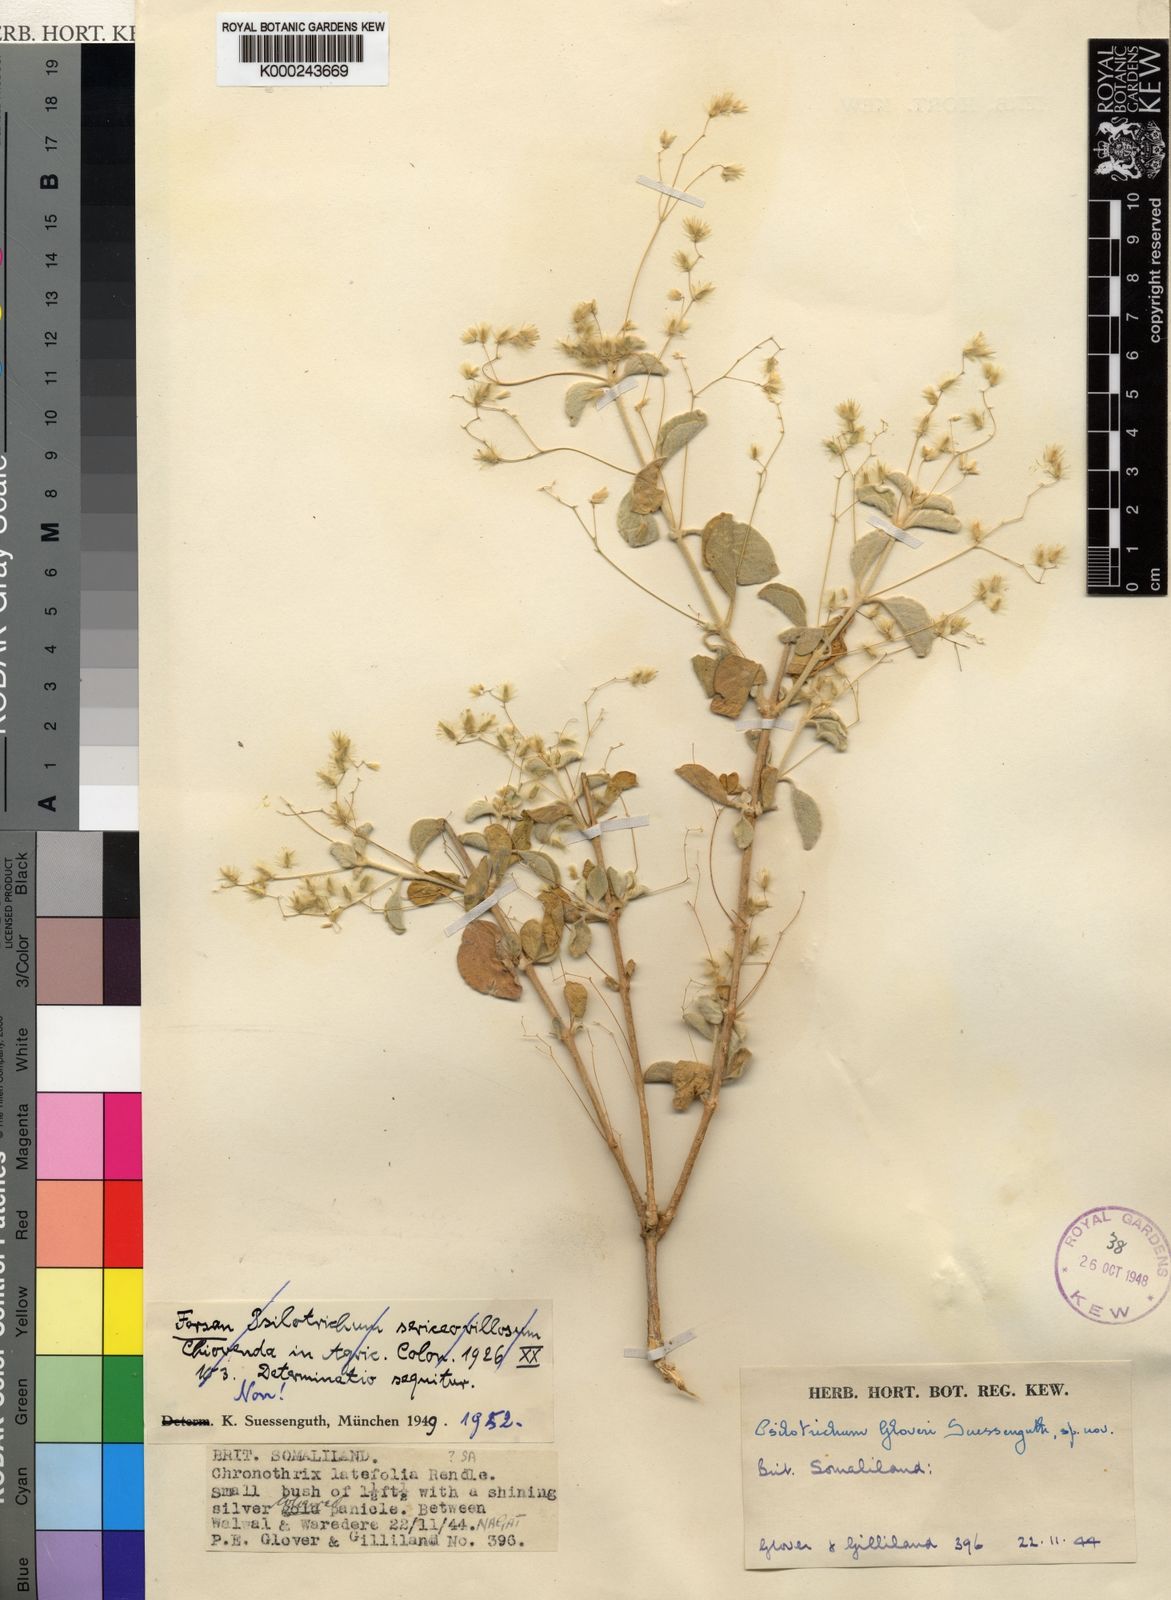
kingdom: Plantae
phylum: Tracheophyta
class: Magnoliopsida
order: Caryophyllales
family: Amaranthaceae
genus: Psilotrichum
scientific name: Psilotrichum gloveri
